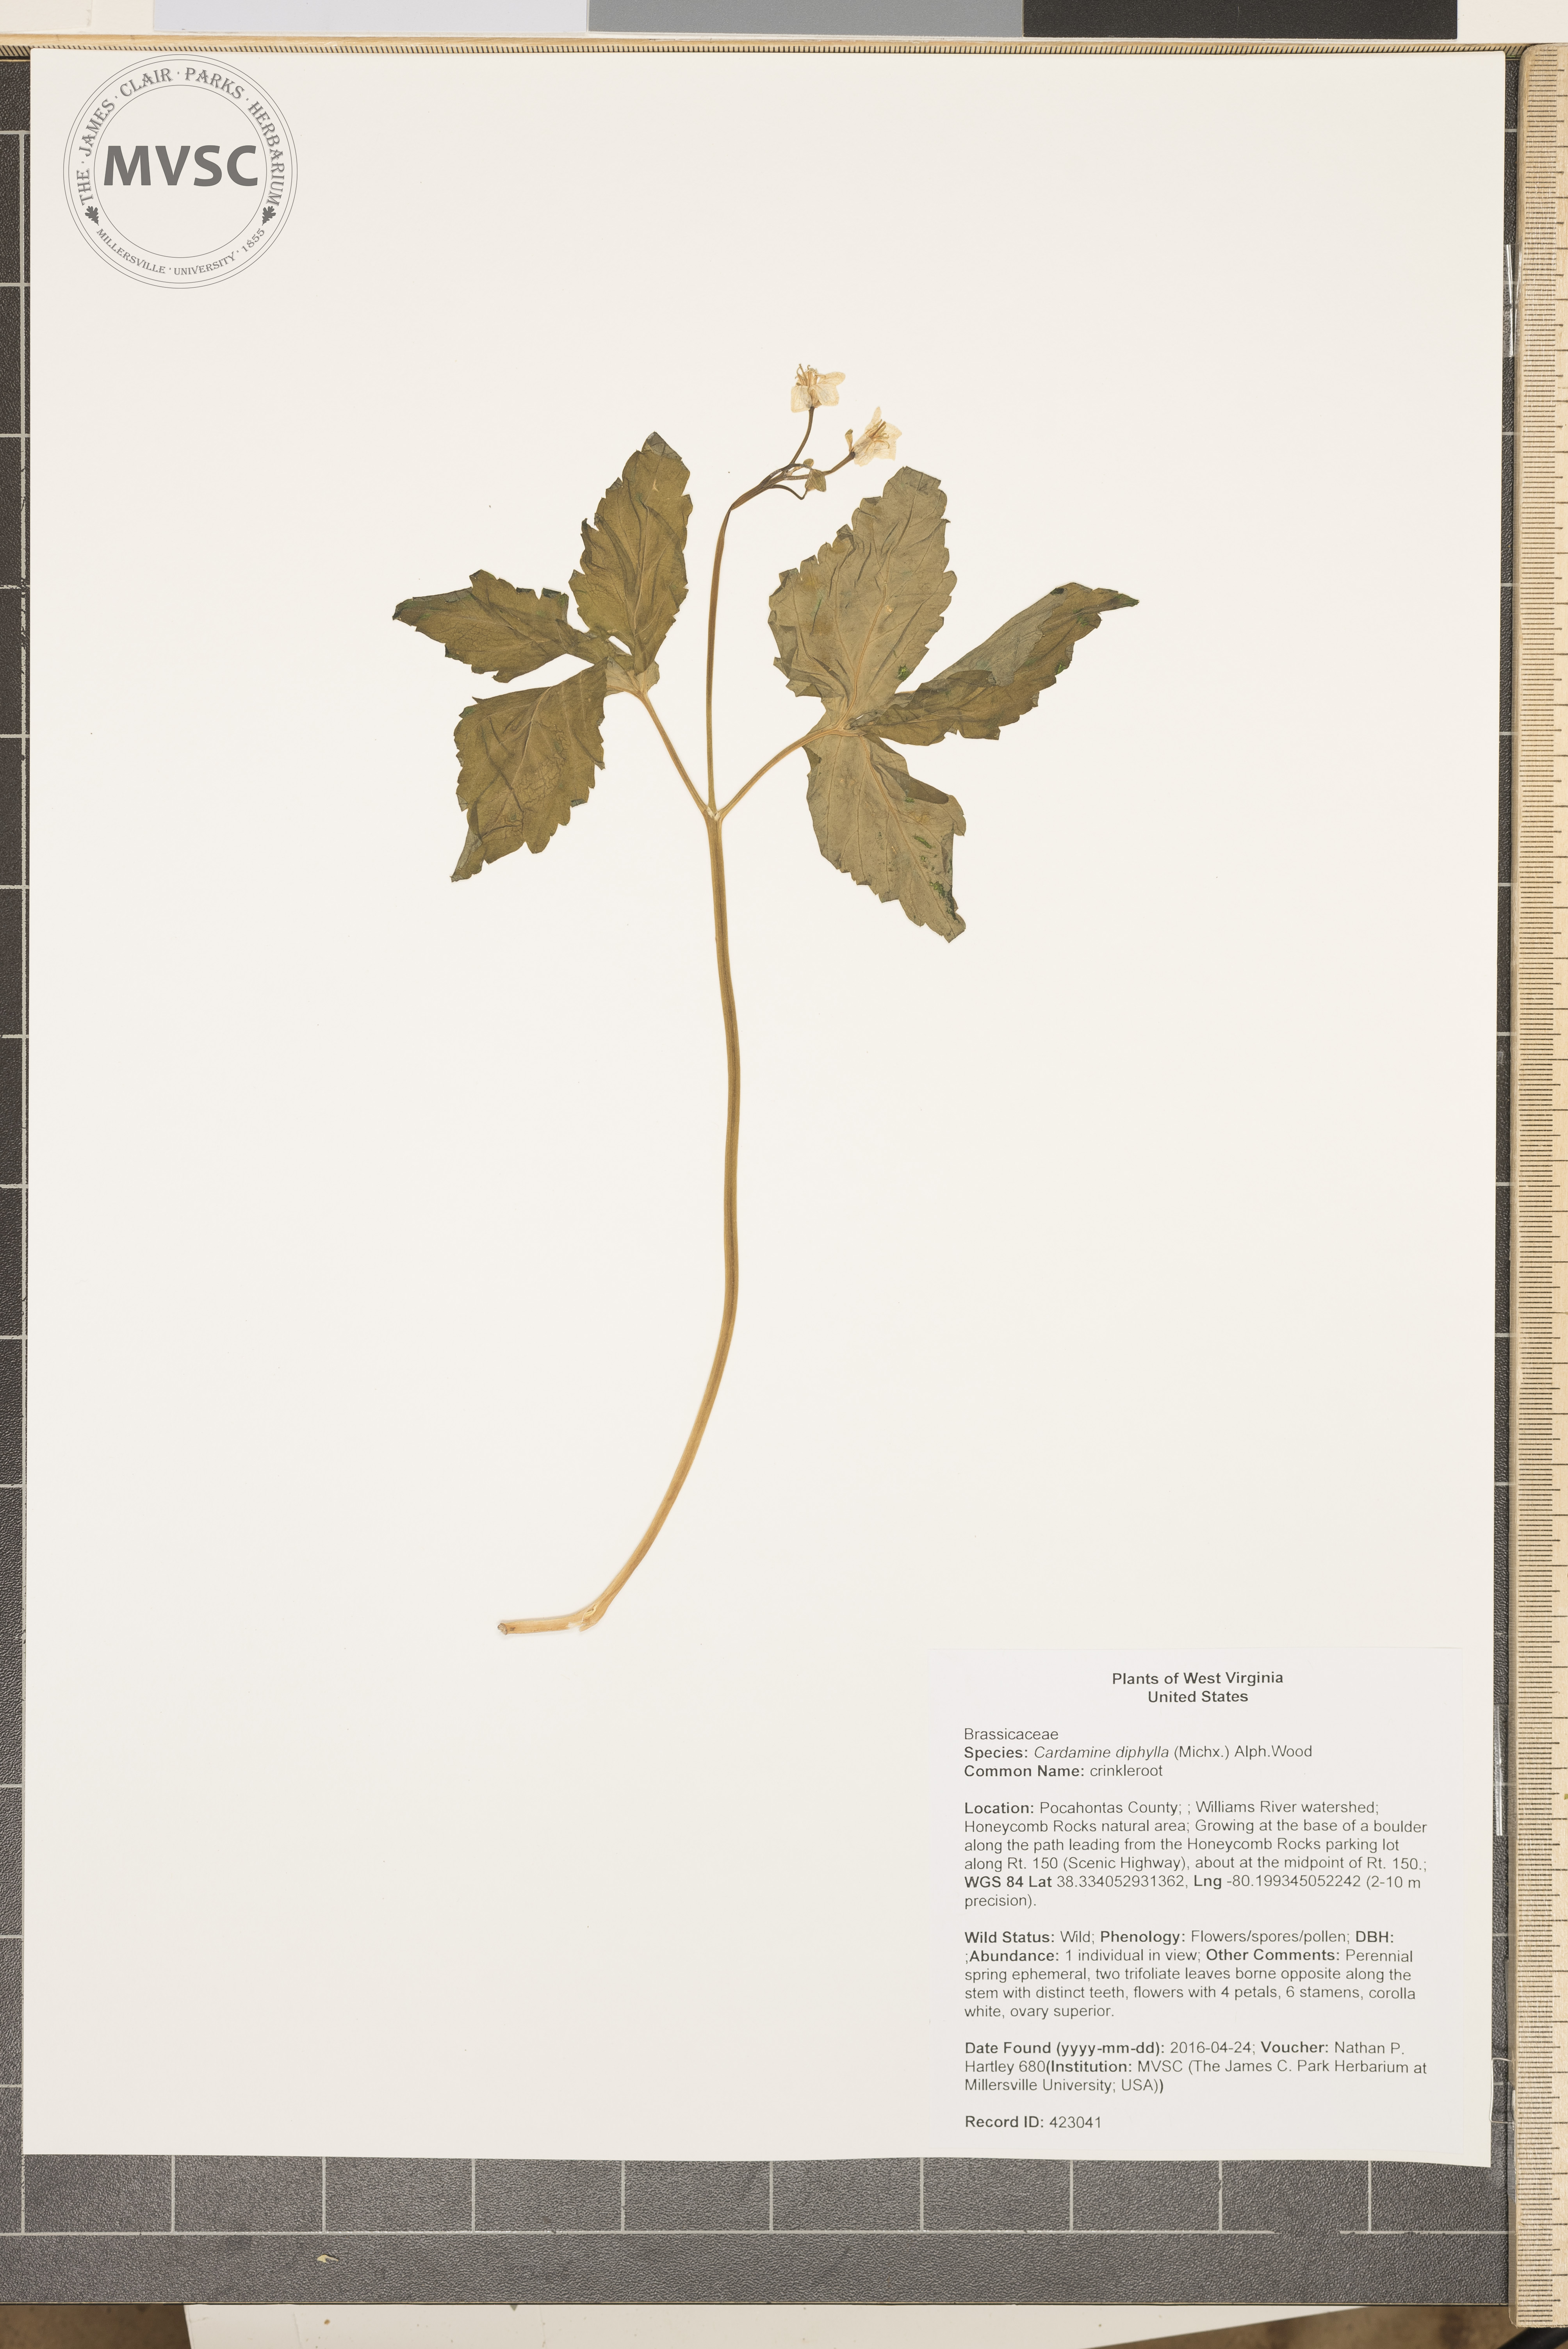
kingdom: Plantae
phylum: Tracheophyta
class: Magnoliopsida
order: Brassicales
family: Brassicaceae
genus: Cardamine
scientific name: Cardamine diphylla
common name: crinkleroot
